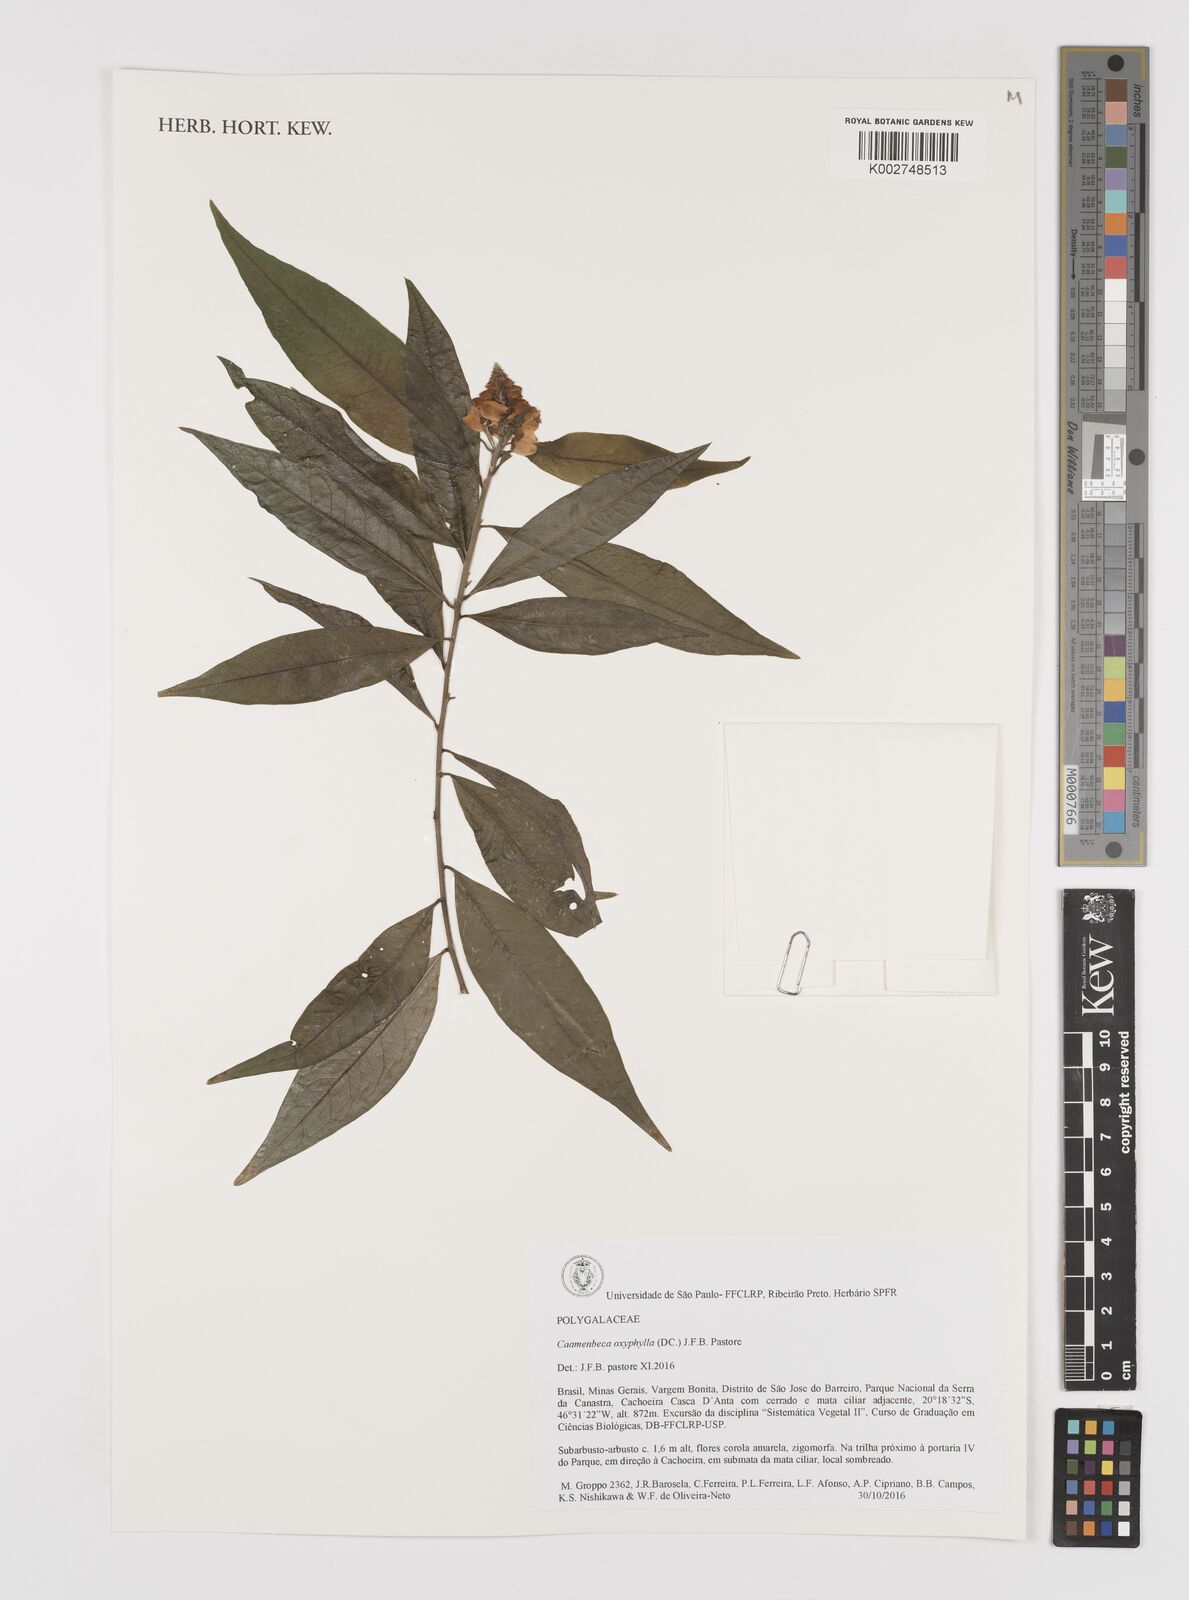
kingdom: Plantae
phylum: Tracheophyta
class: Magnoliopsida
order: Fabales
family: Polygalaceae
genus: Caamembeca
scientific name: Caamembeca oxyphylla
